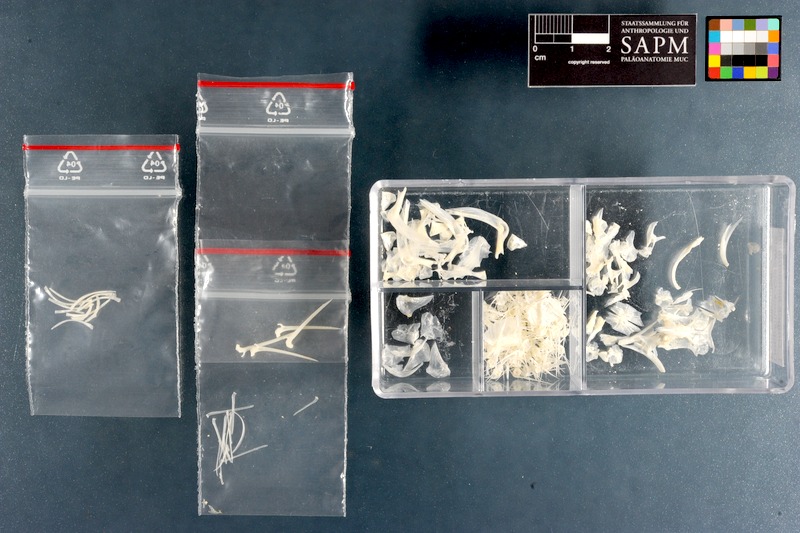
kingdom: Animalia
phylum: Chordata
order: Siluriformes
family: Siluridae
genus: Ompok
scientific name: Ompok bimaculatus
